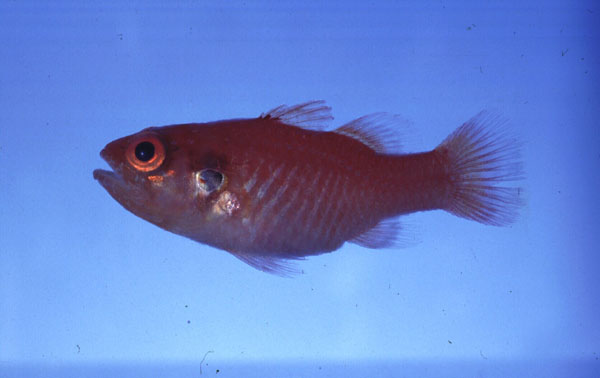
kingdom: Animalia
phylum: Chordata
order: Perciformes
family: Apogonidae
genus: Fowleria
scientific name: Fowleria aurita
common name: Crosseyed cardinalfish
